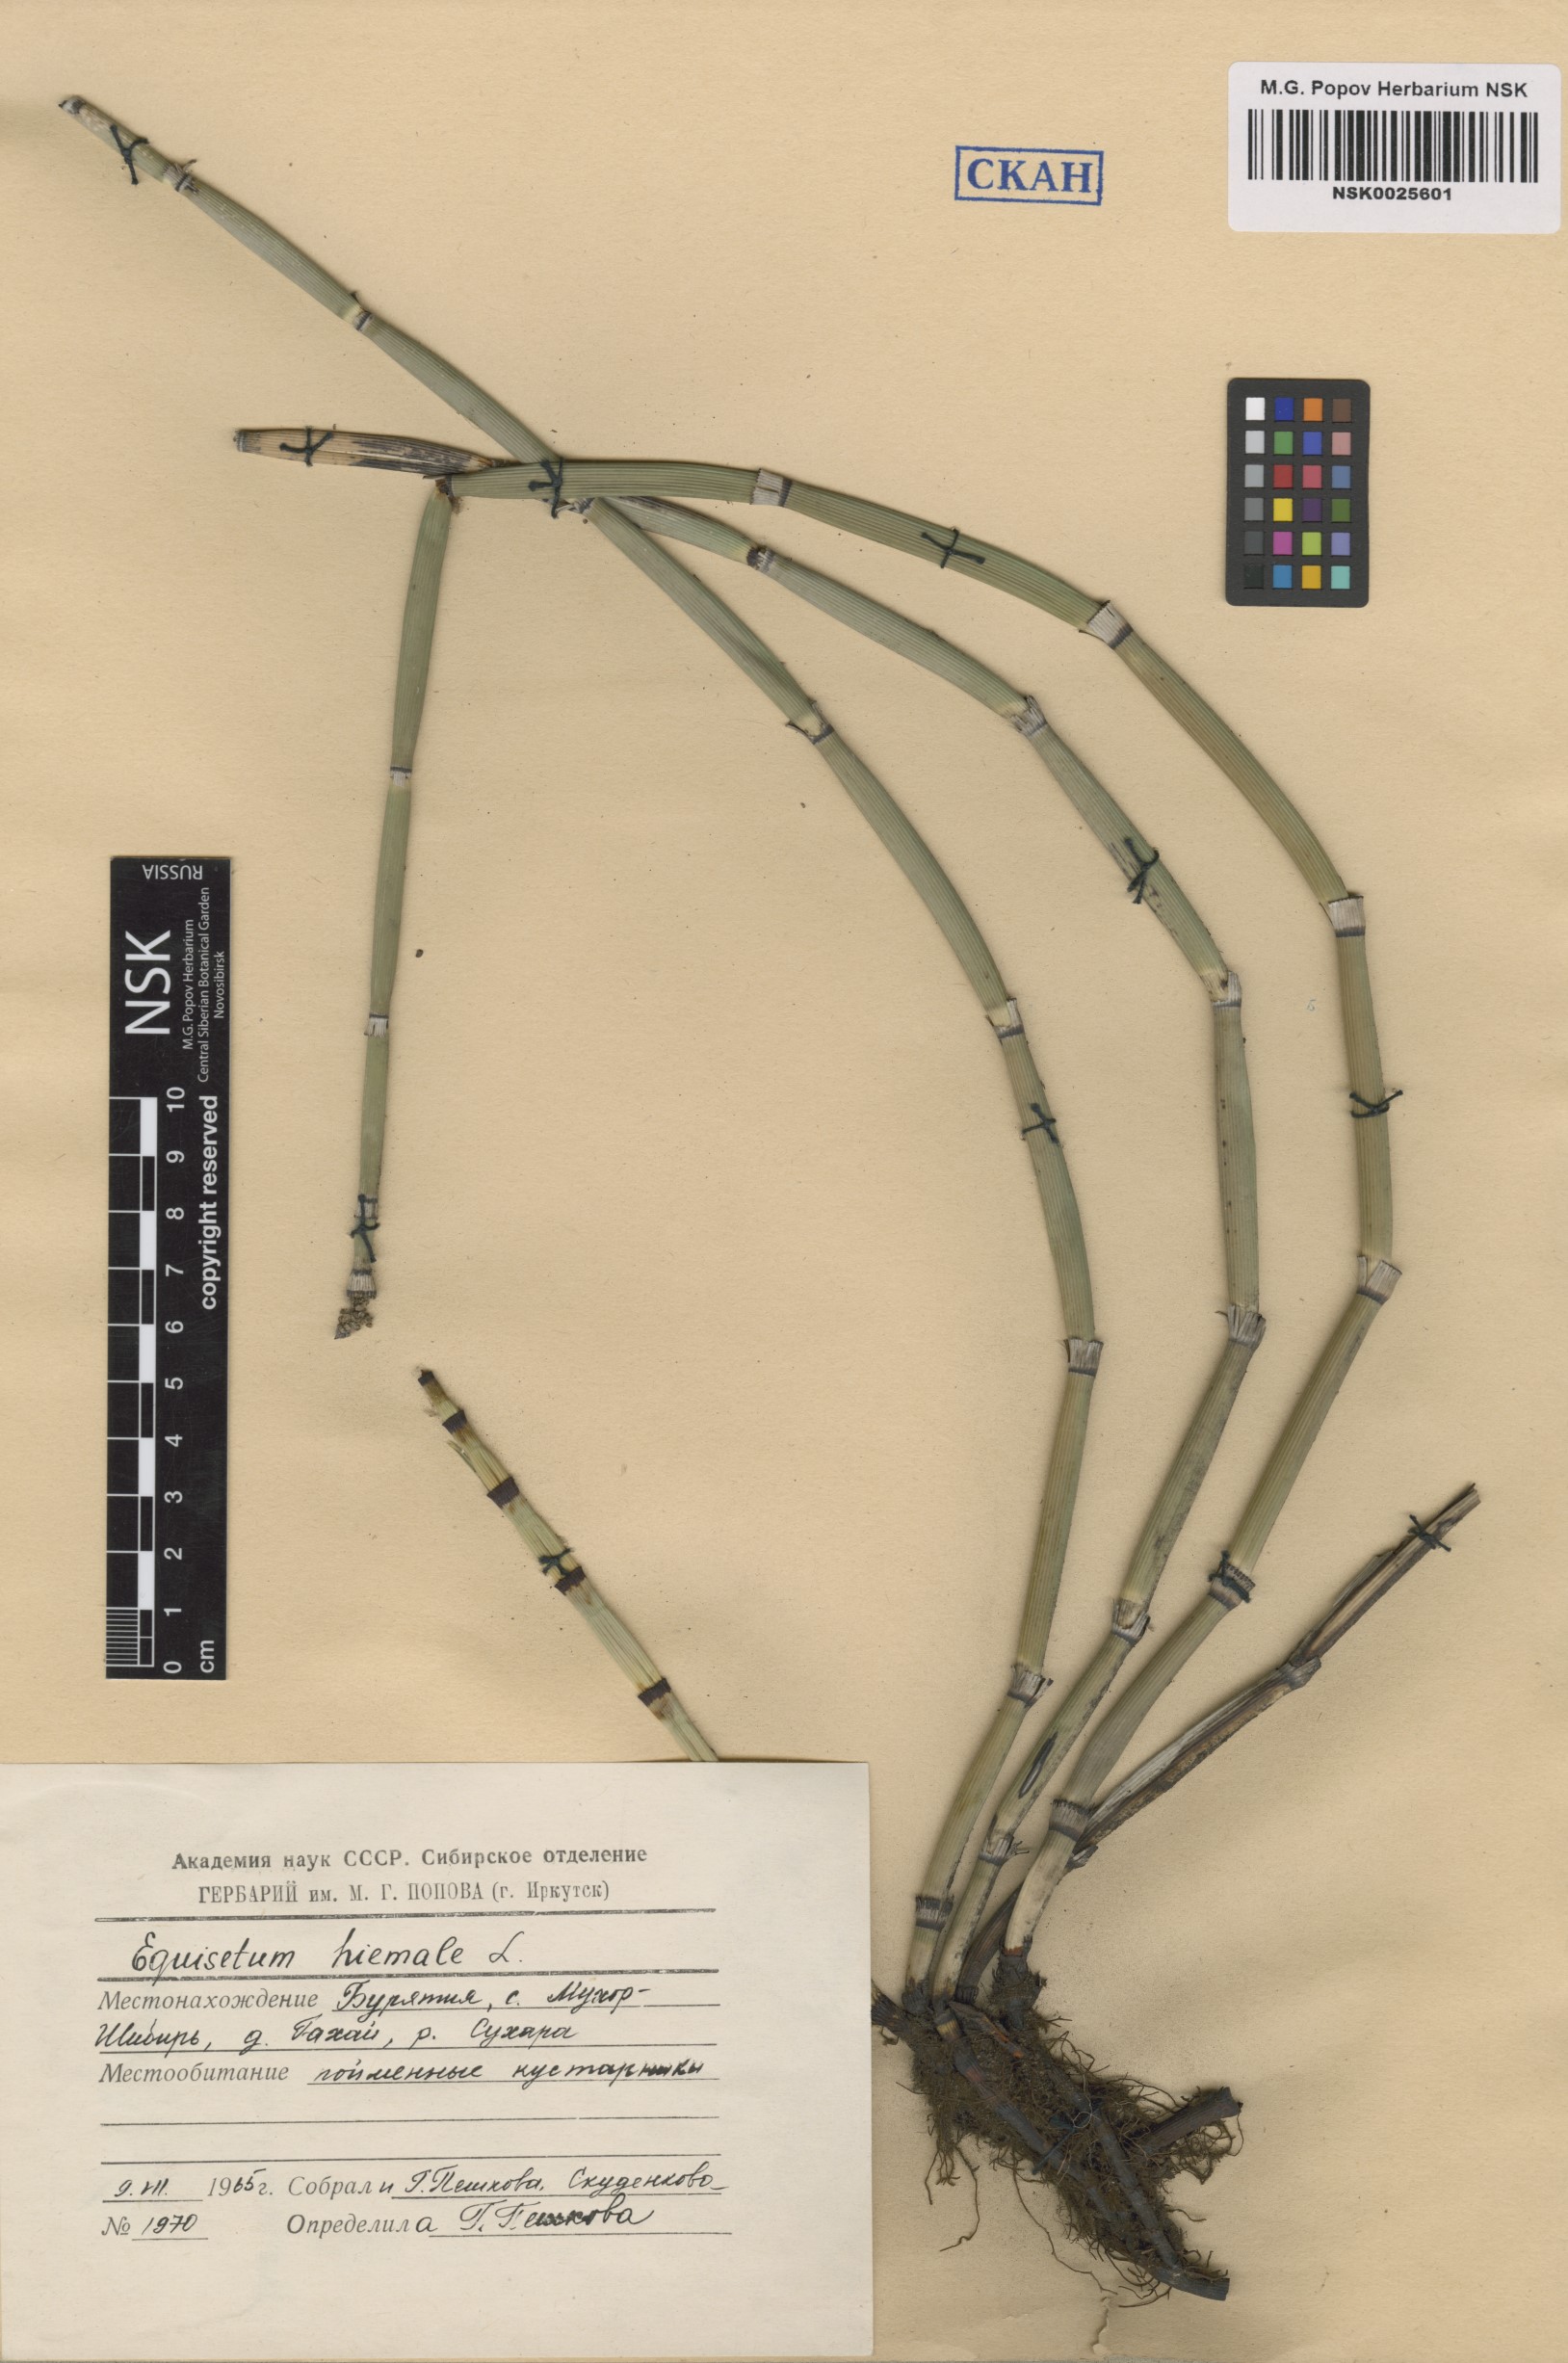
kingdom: Plantae
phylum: Tracheophyta
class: Polypodiopsida
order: Equisetales
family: Equisetaceae
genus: Equisetum
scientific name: Equisetum hyemale
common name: Rough horsetail
